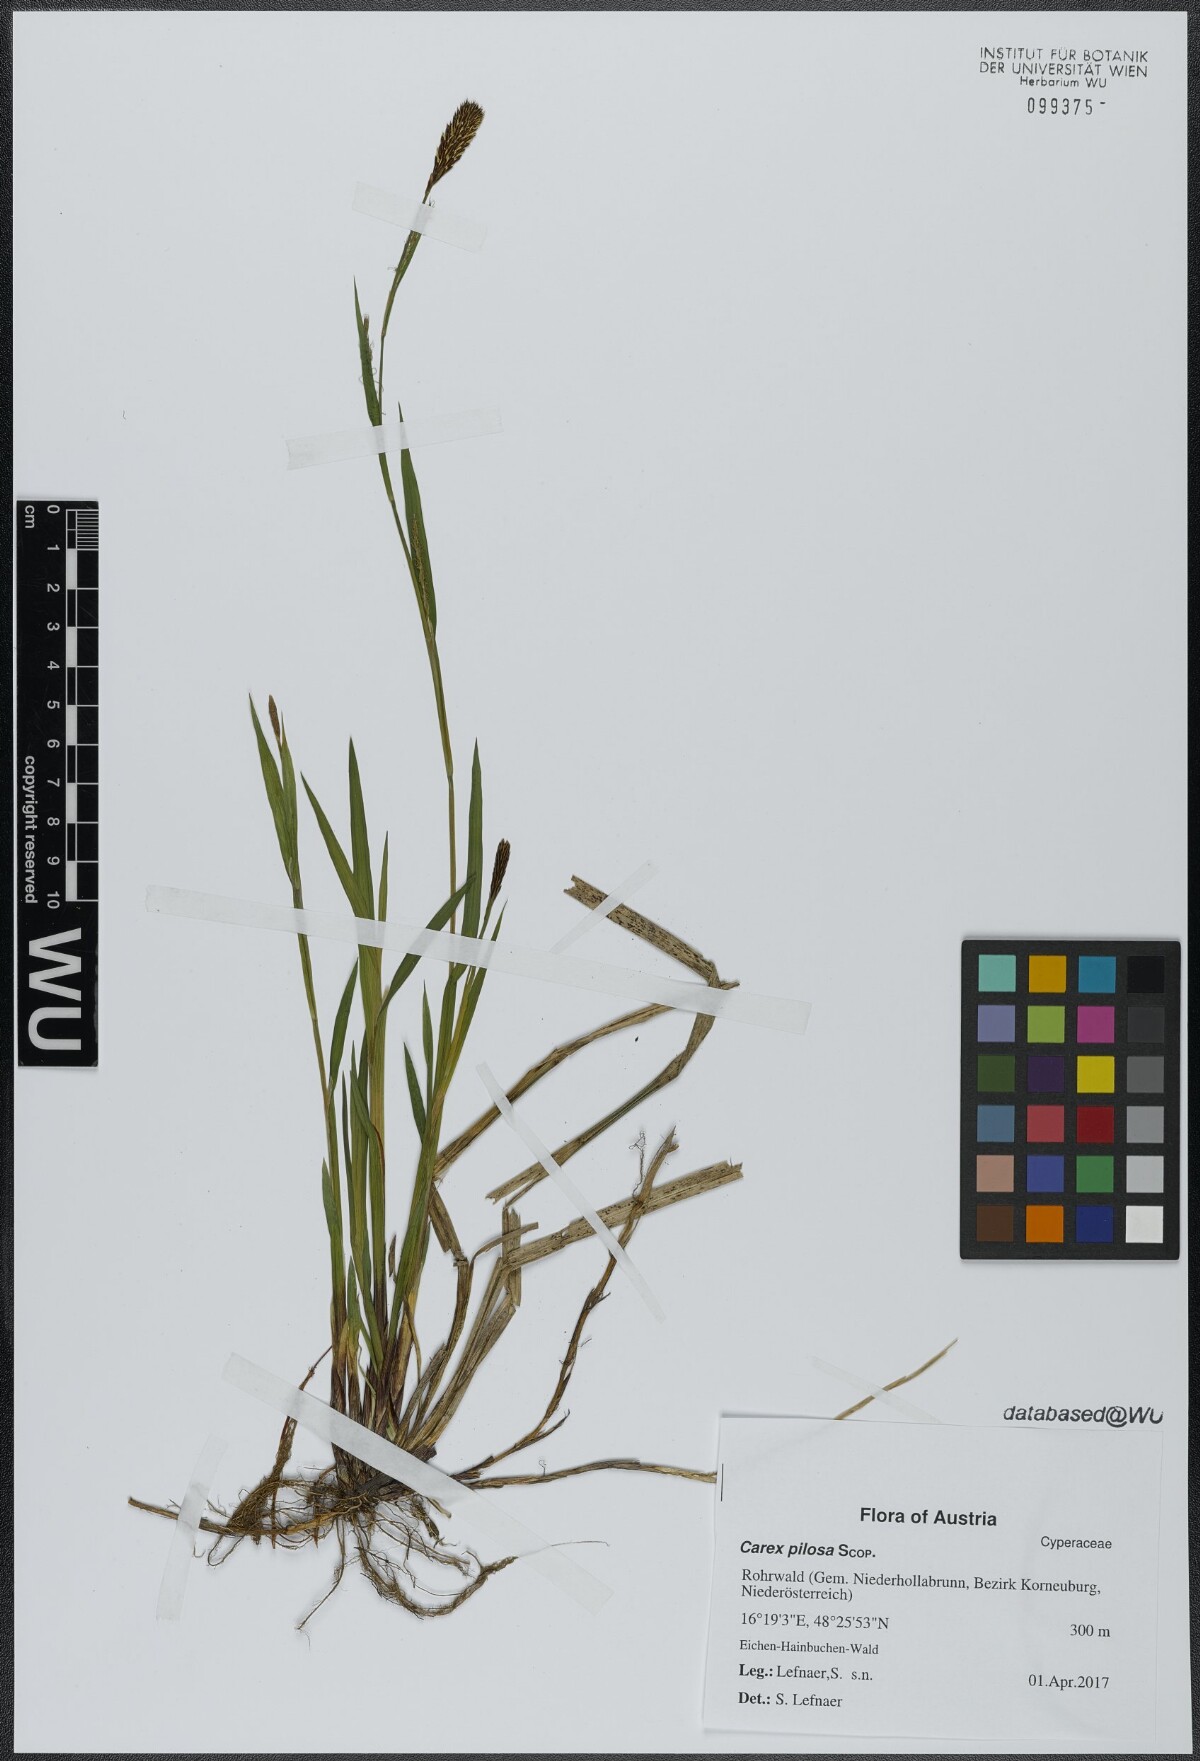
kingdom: Plantae
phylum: Tracheophyta
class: Liliopsida
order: Poales
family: Cyperaceae
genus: Carex
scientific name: Carex pilosa
